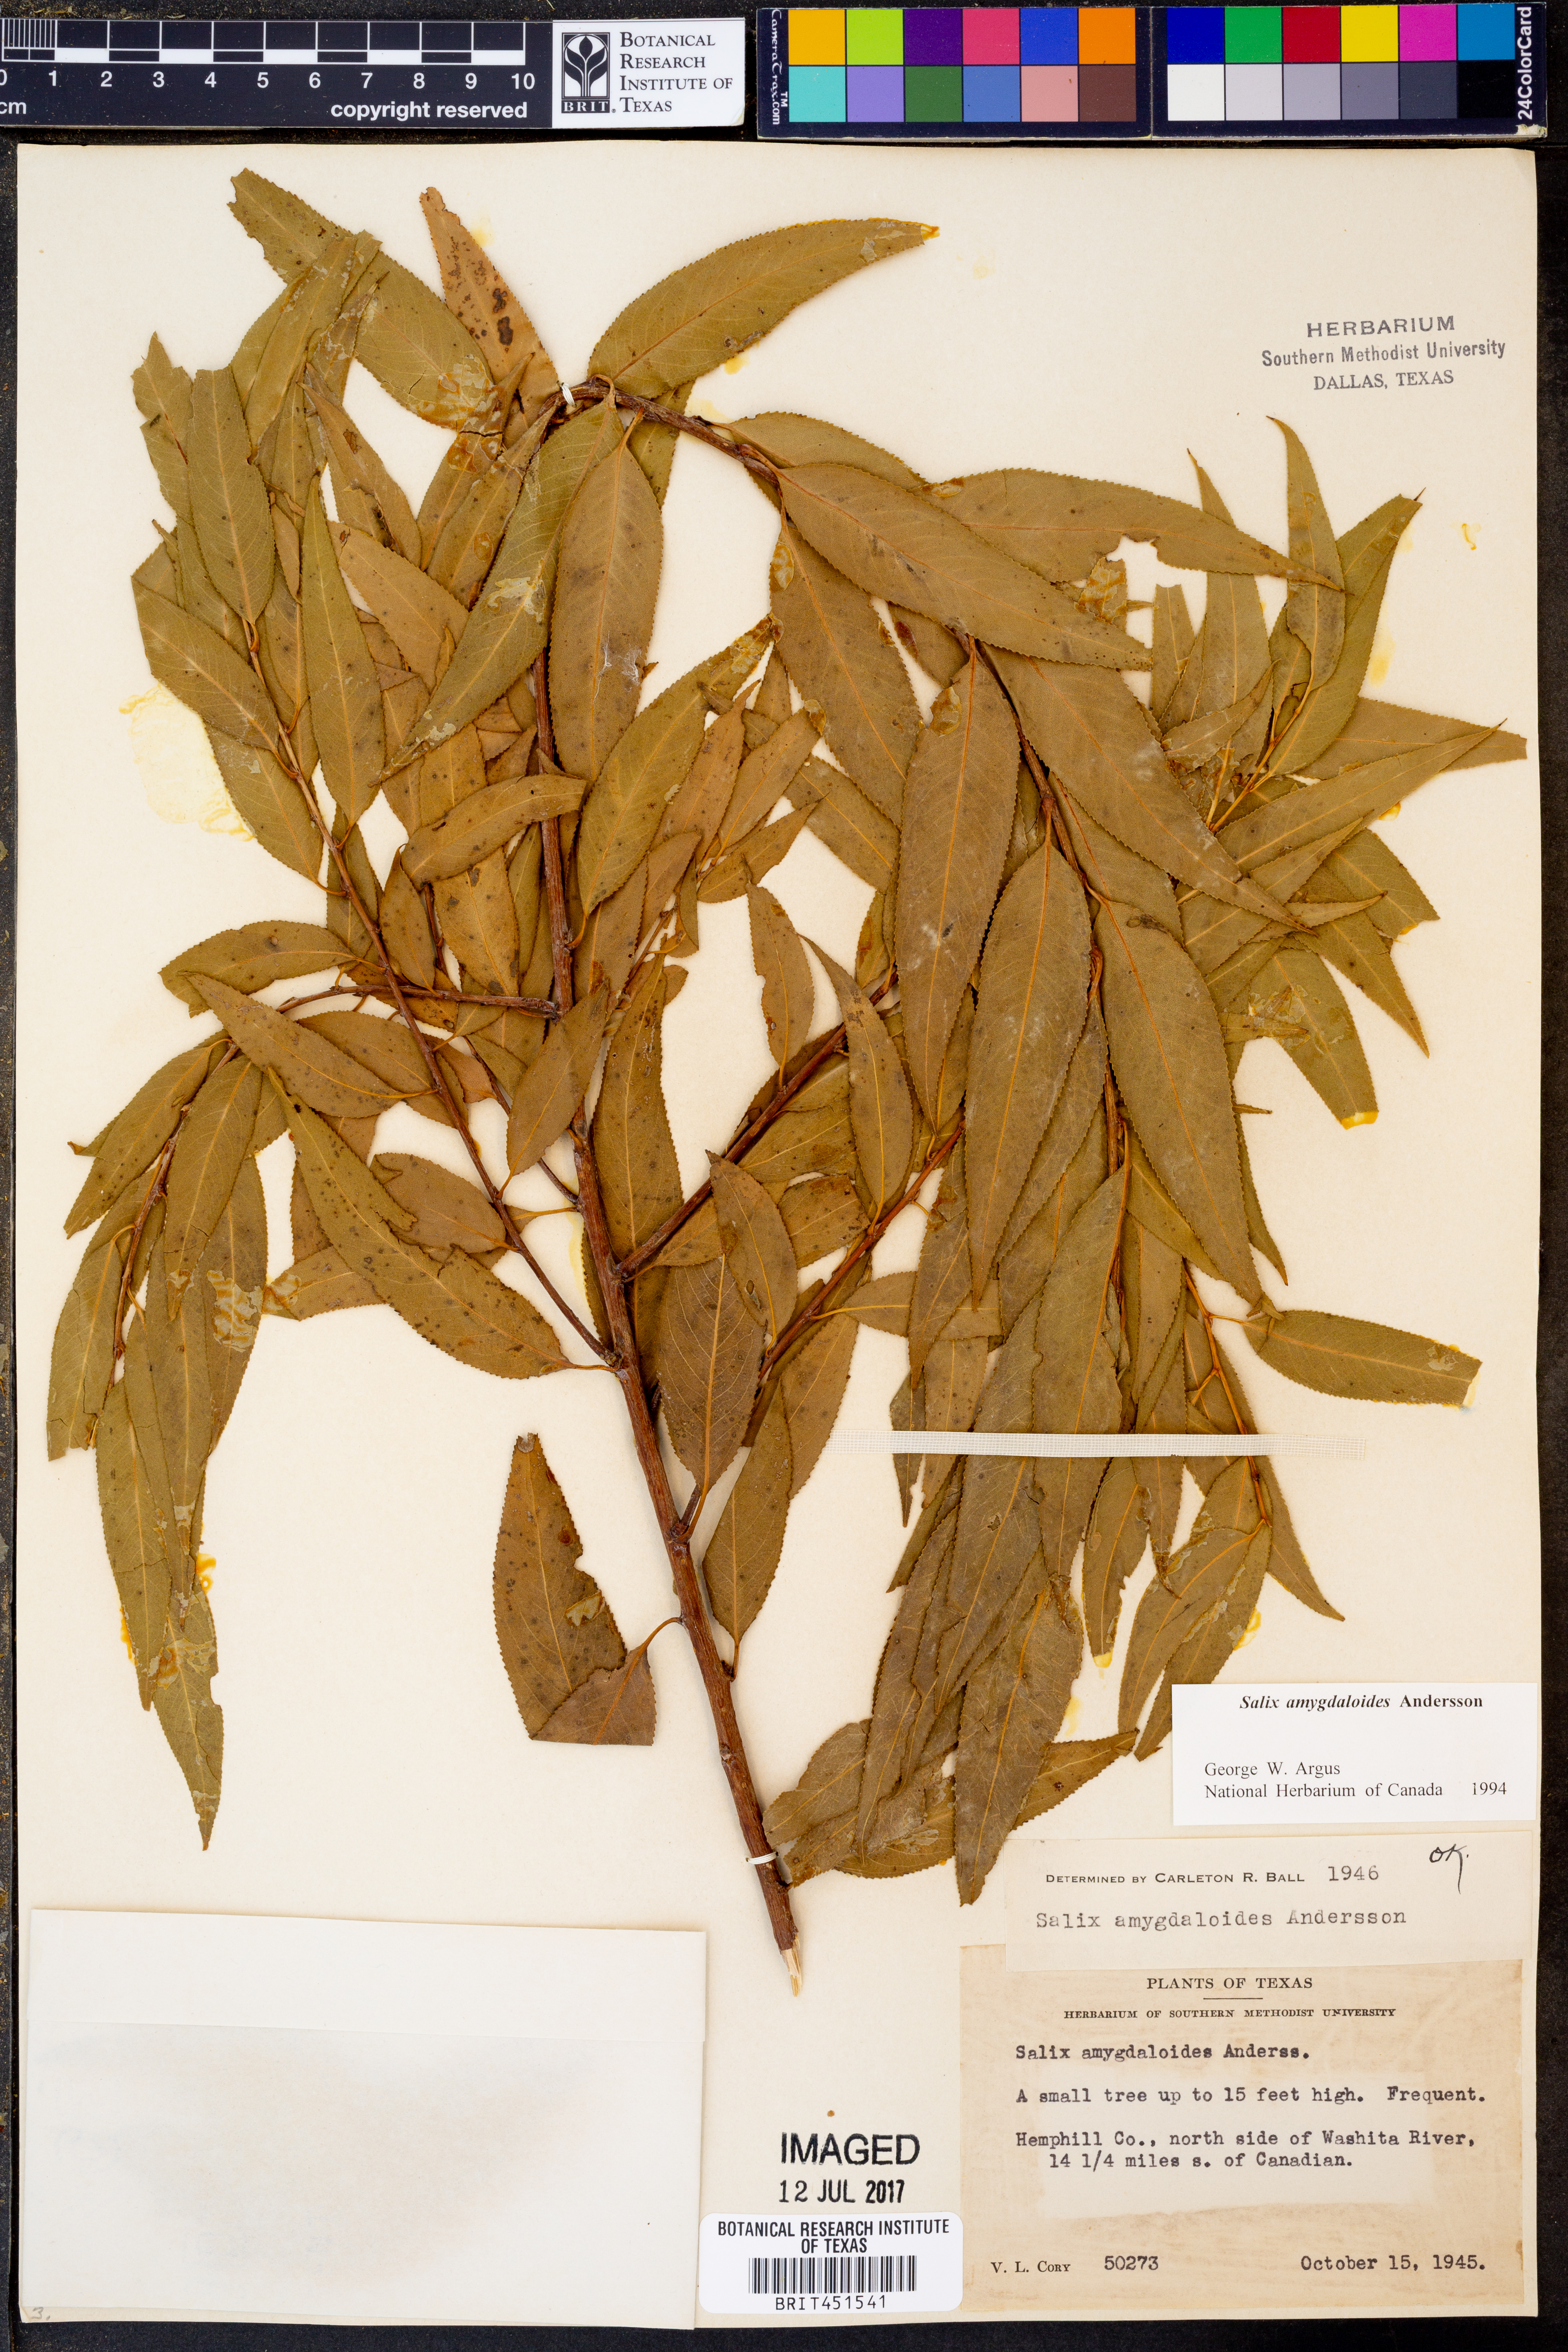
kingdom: Plantae
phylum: Tracheophyta
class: Magnoliopsida
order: Malpighiales
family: Salicaceae
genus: Salix
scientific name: Salix amygdaloides
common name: Peach leaf willow
